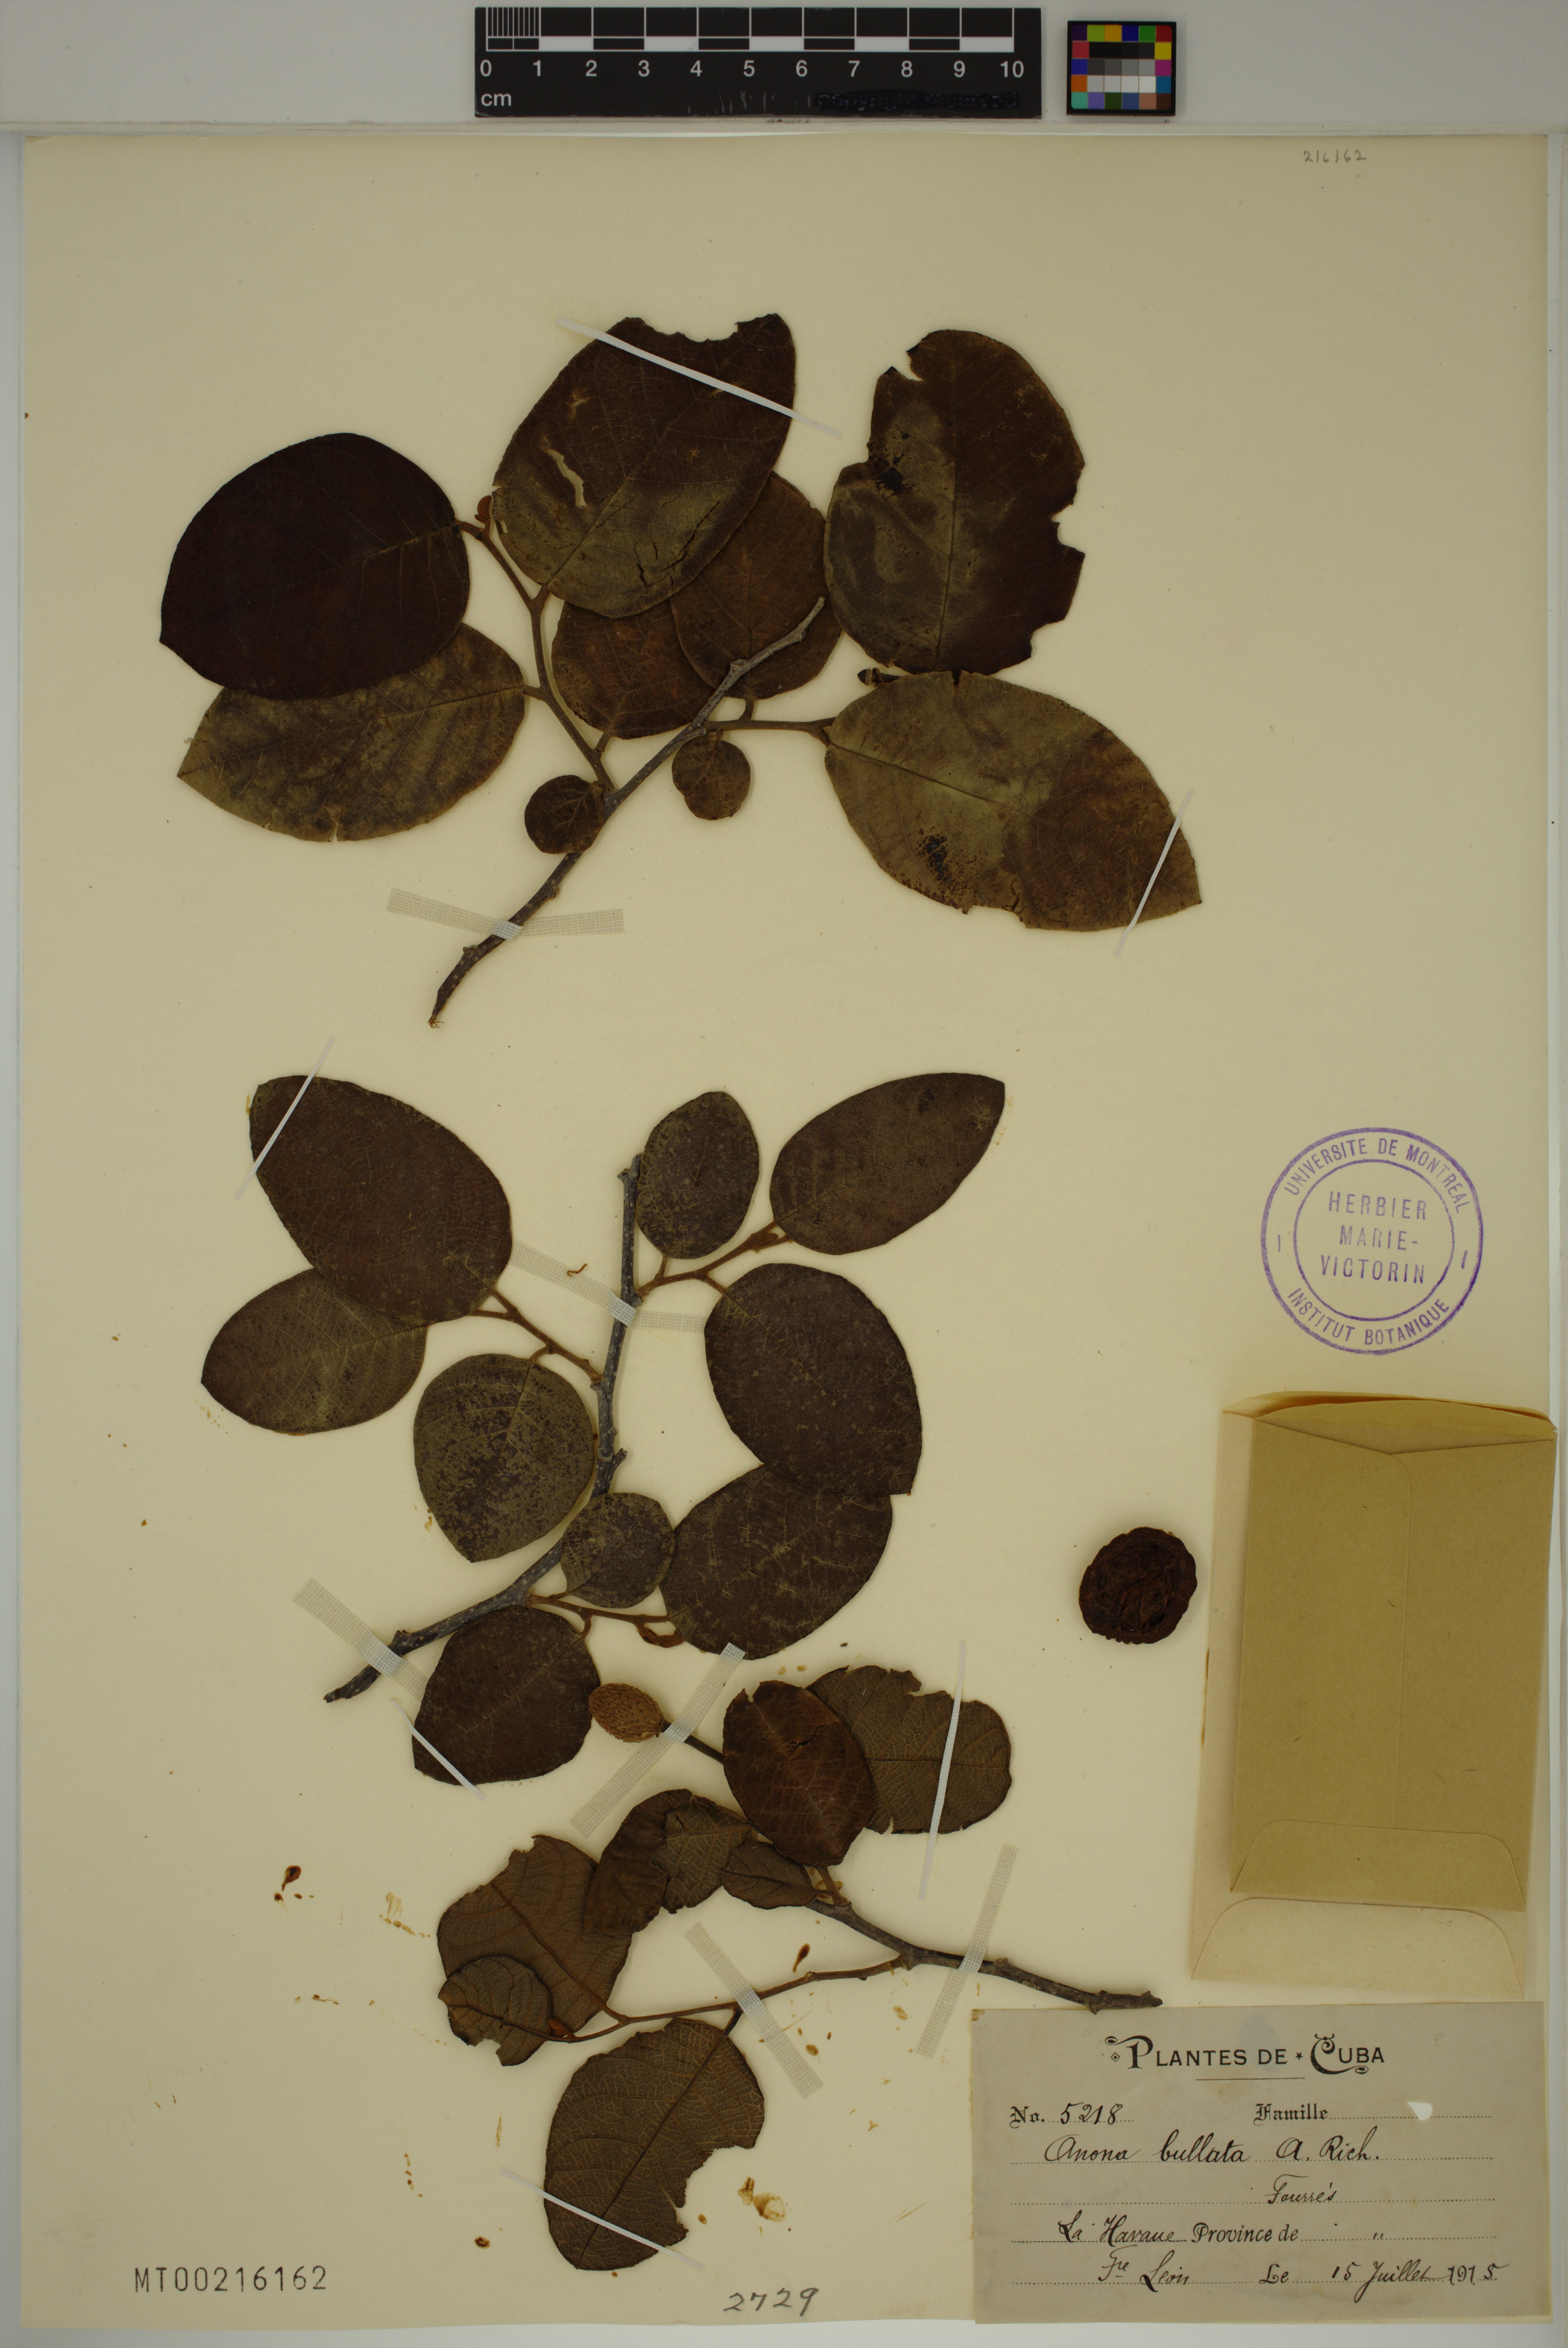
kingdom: Plantae
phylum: Tracheophyta
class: Magnoliopsida
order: Magnoliales
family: Annonaceae
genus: Annona
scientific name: Annona bullata
